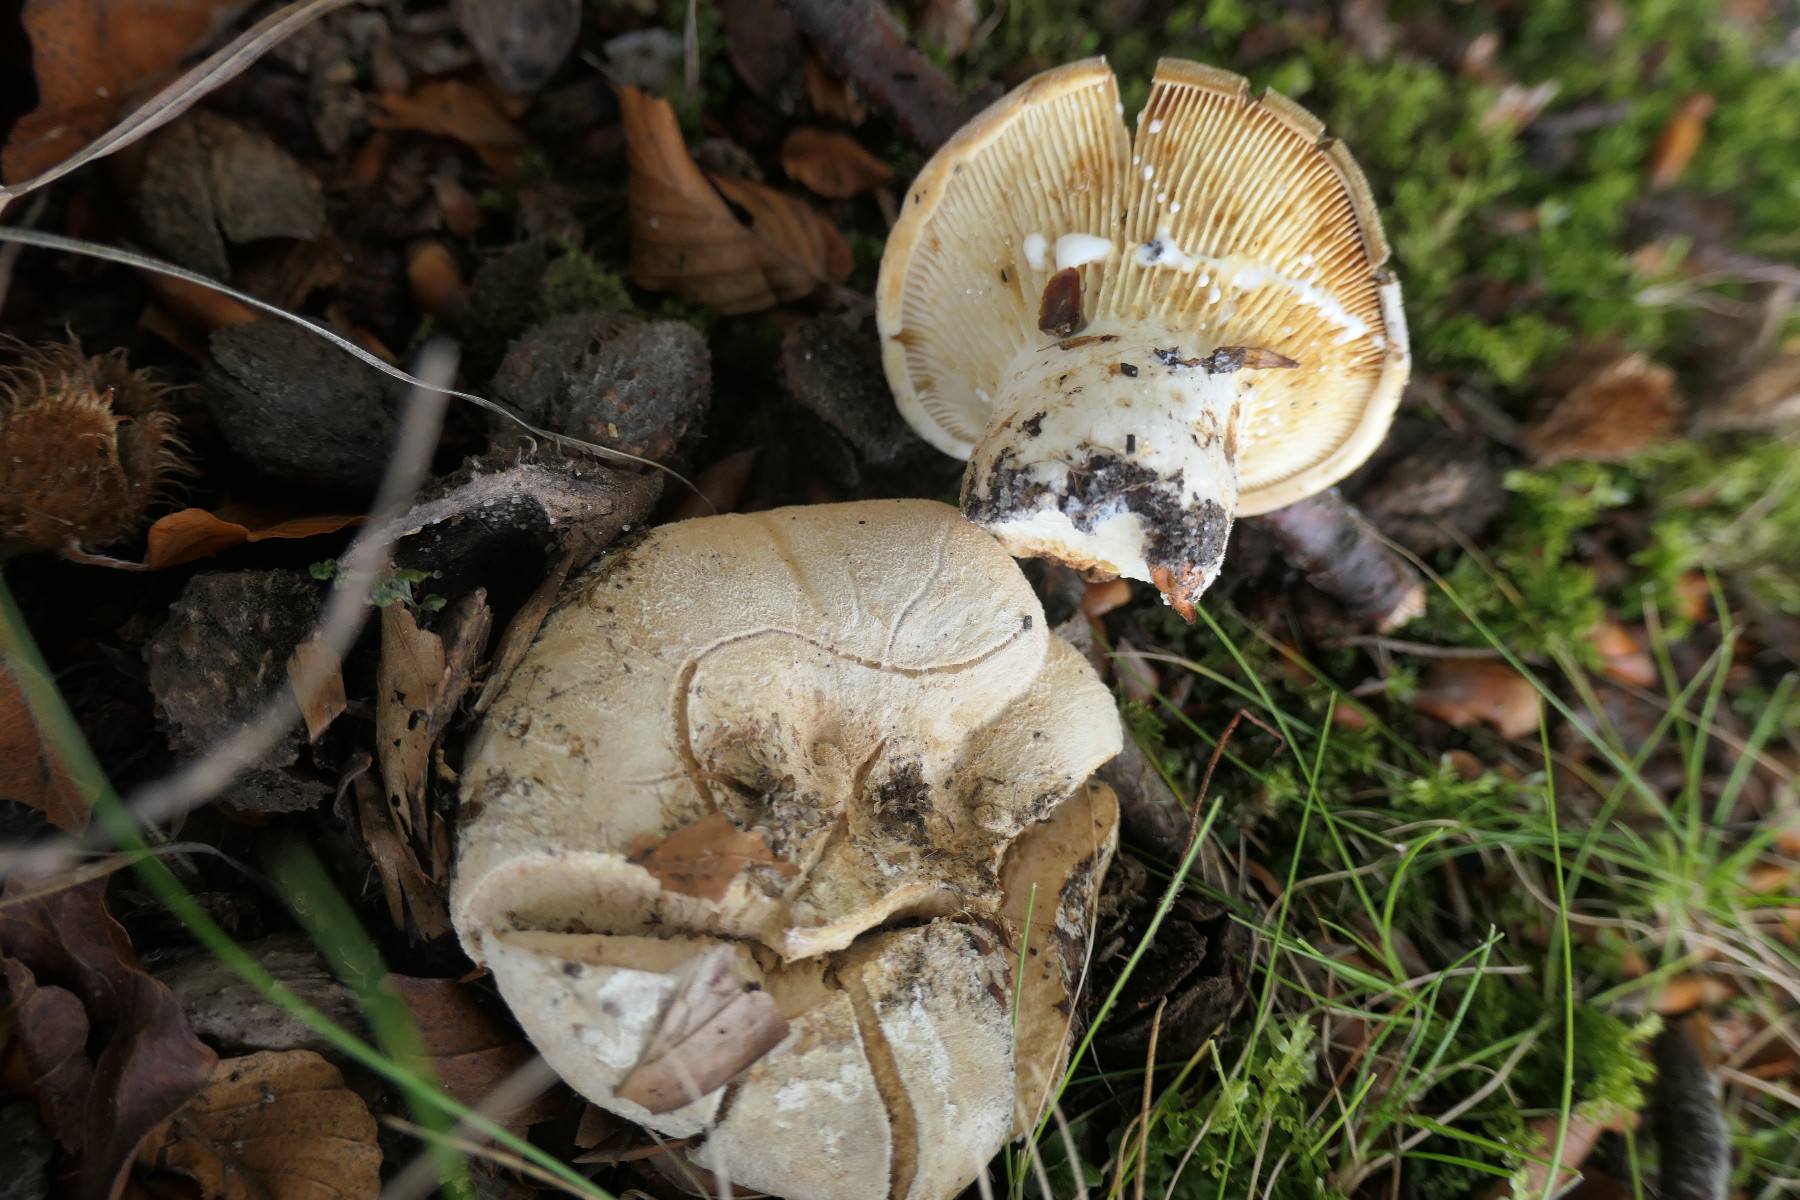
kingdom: Fungi
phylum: Basidiomycota
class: Agaricomycetes
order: Russulales
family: Russulaceae
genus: Lactifluus
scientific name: Lactifluus vellereus
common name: hvidfiltet mælkehat
